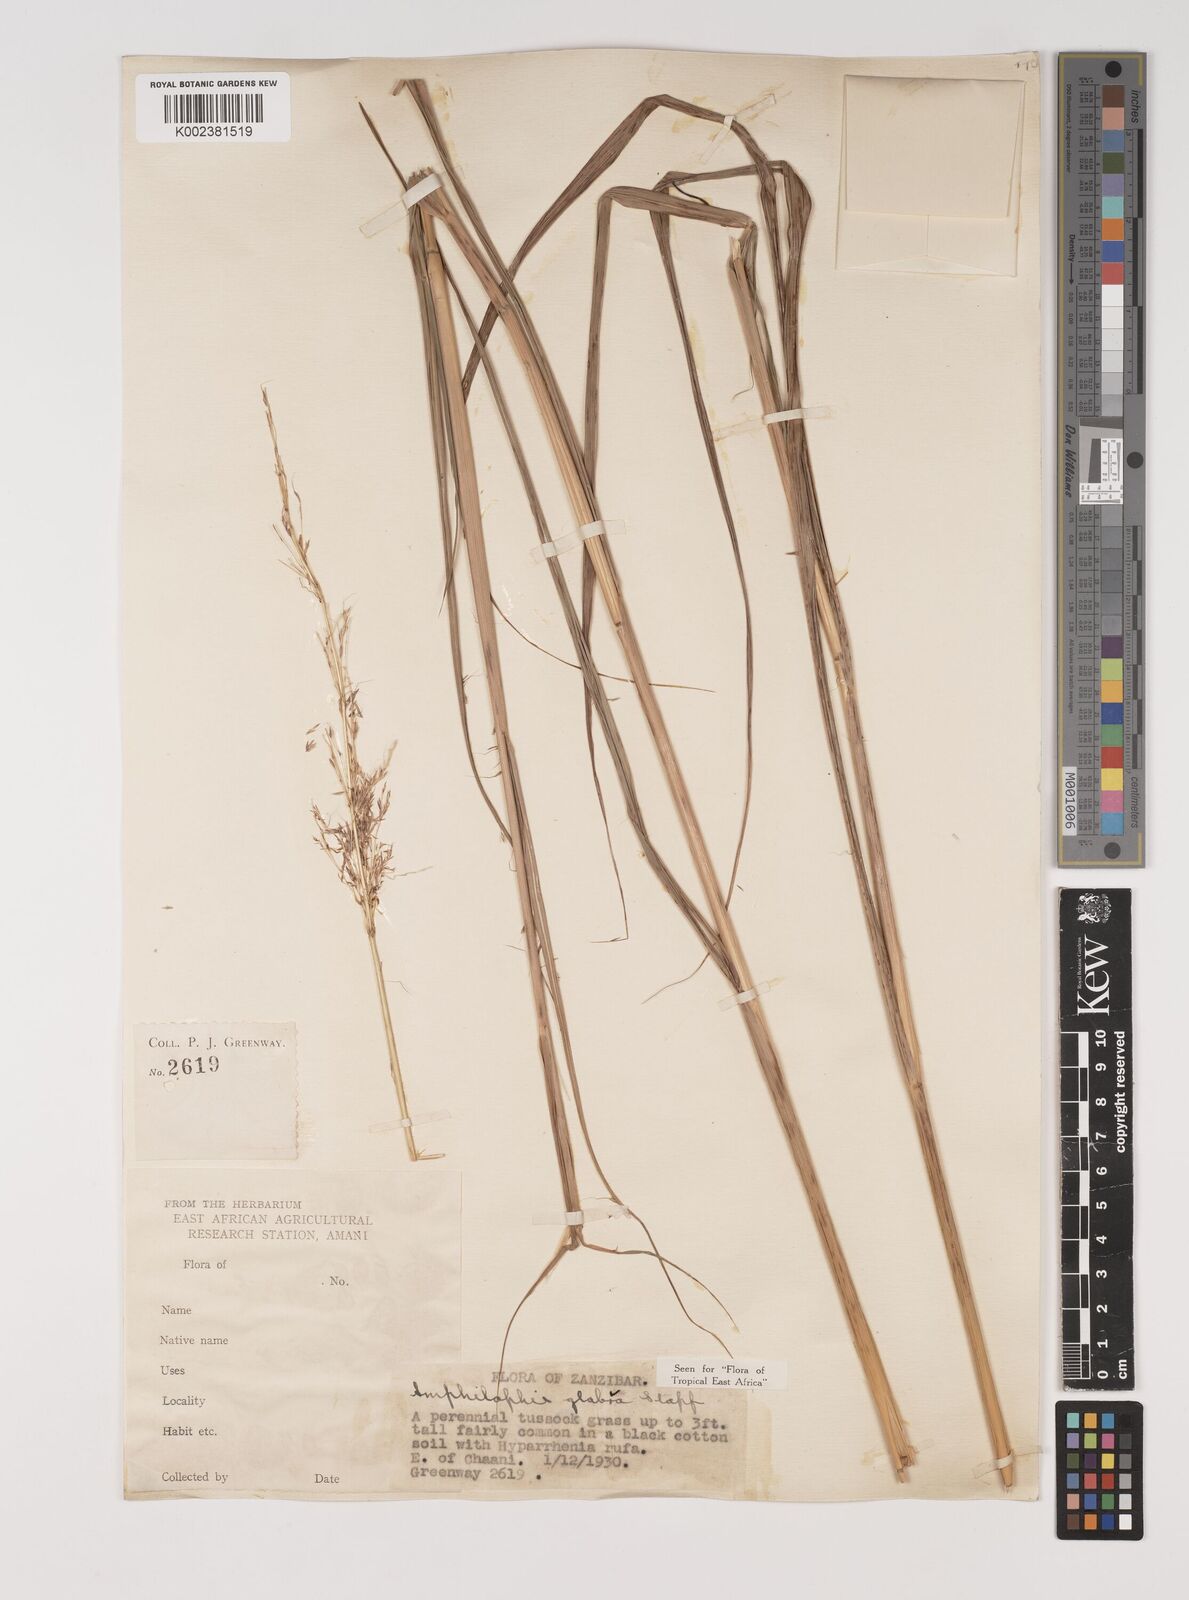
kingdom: Plantae
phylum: Tracheophyta
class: Liliopsida
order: Poales
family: Poaceae
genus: Bothriochloa
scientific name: Bothriochloa
